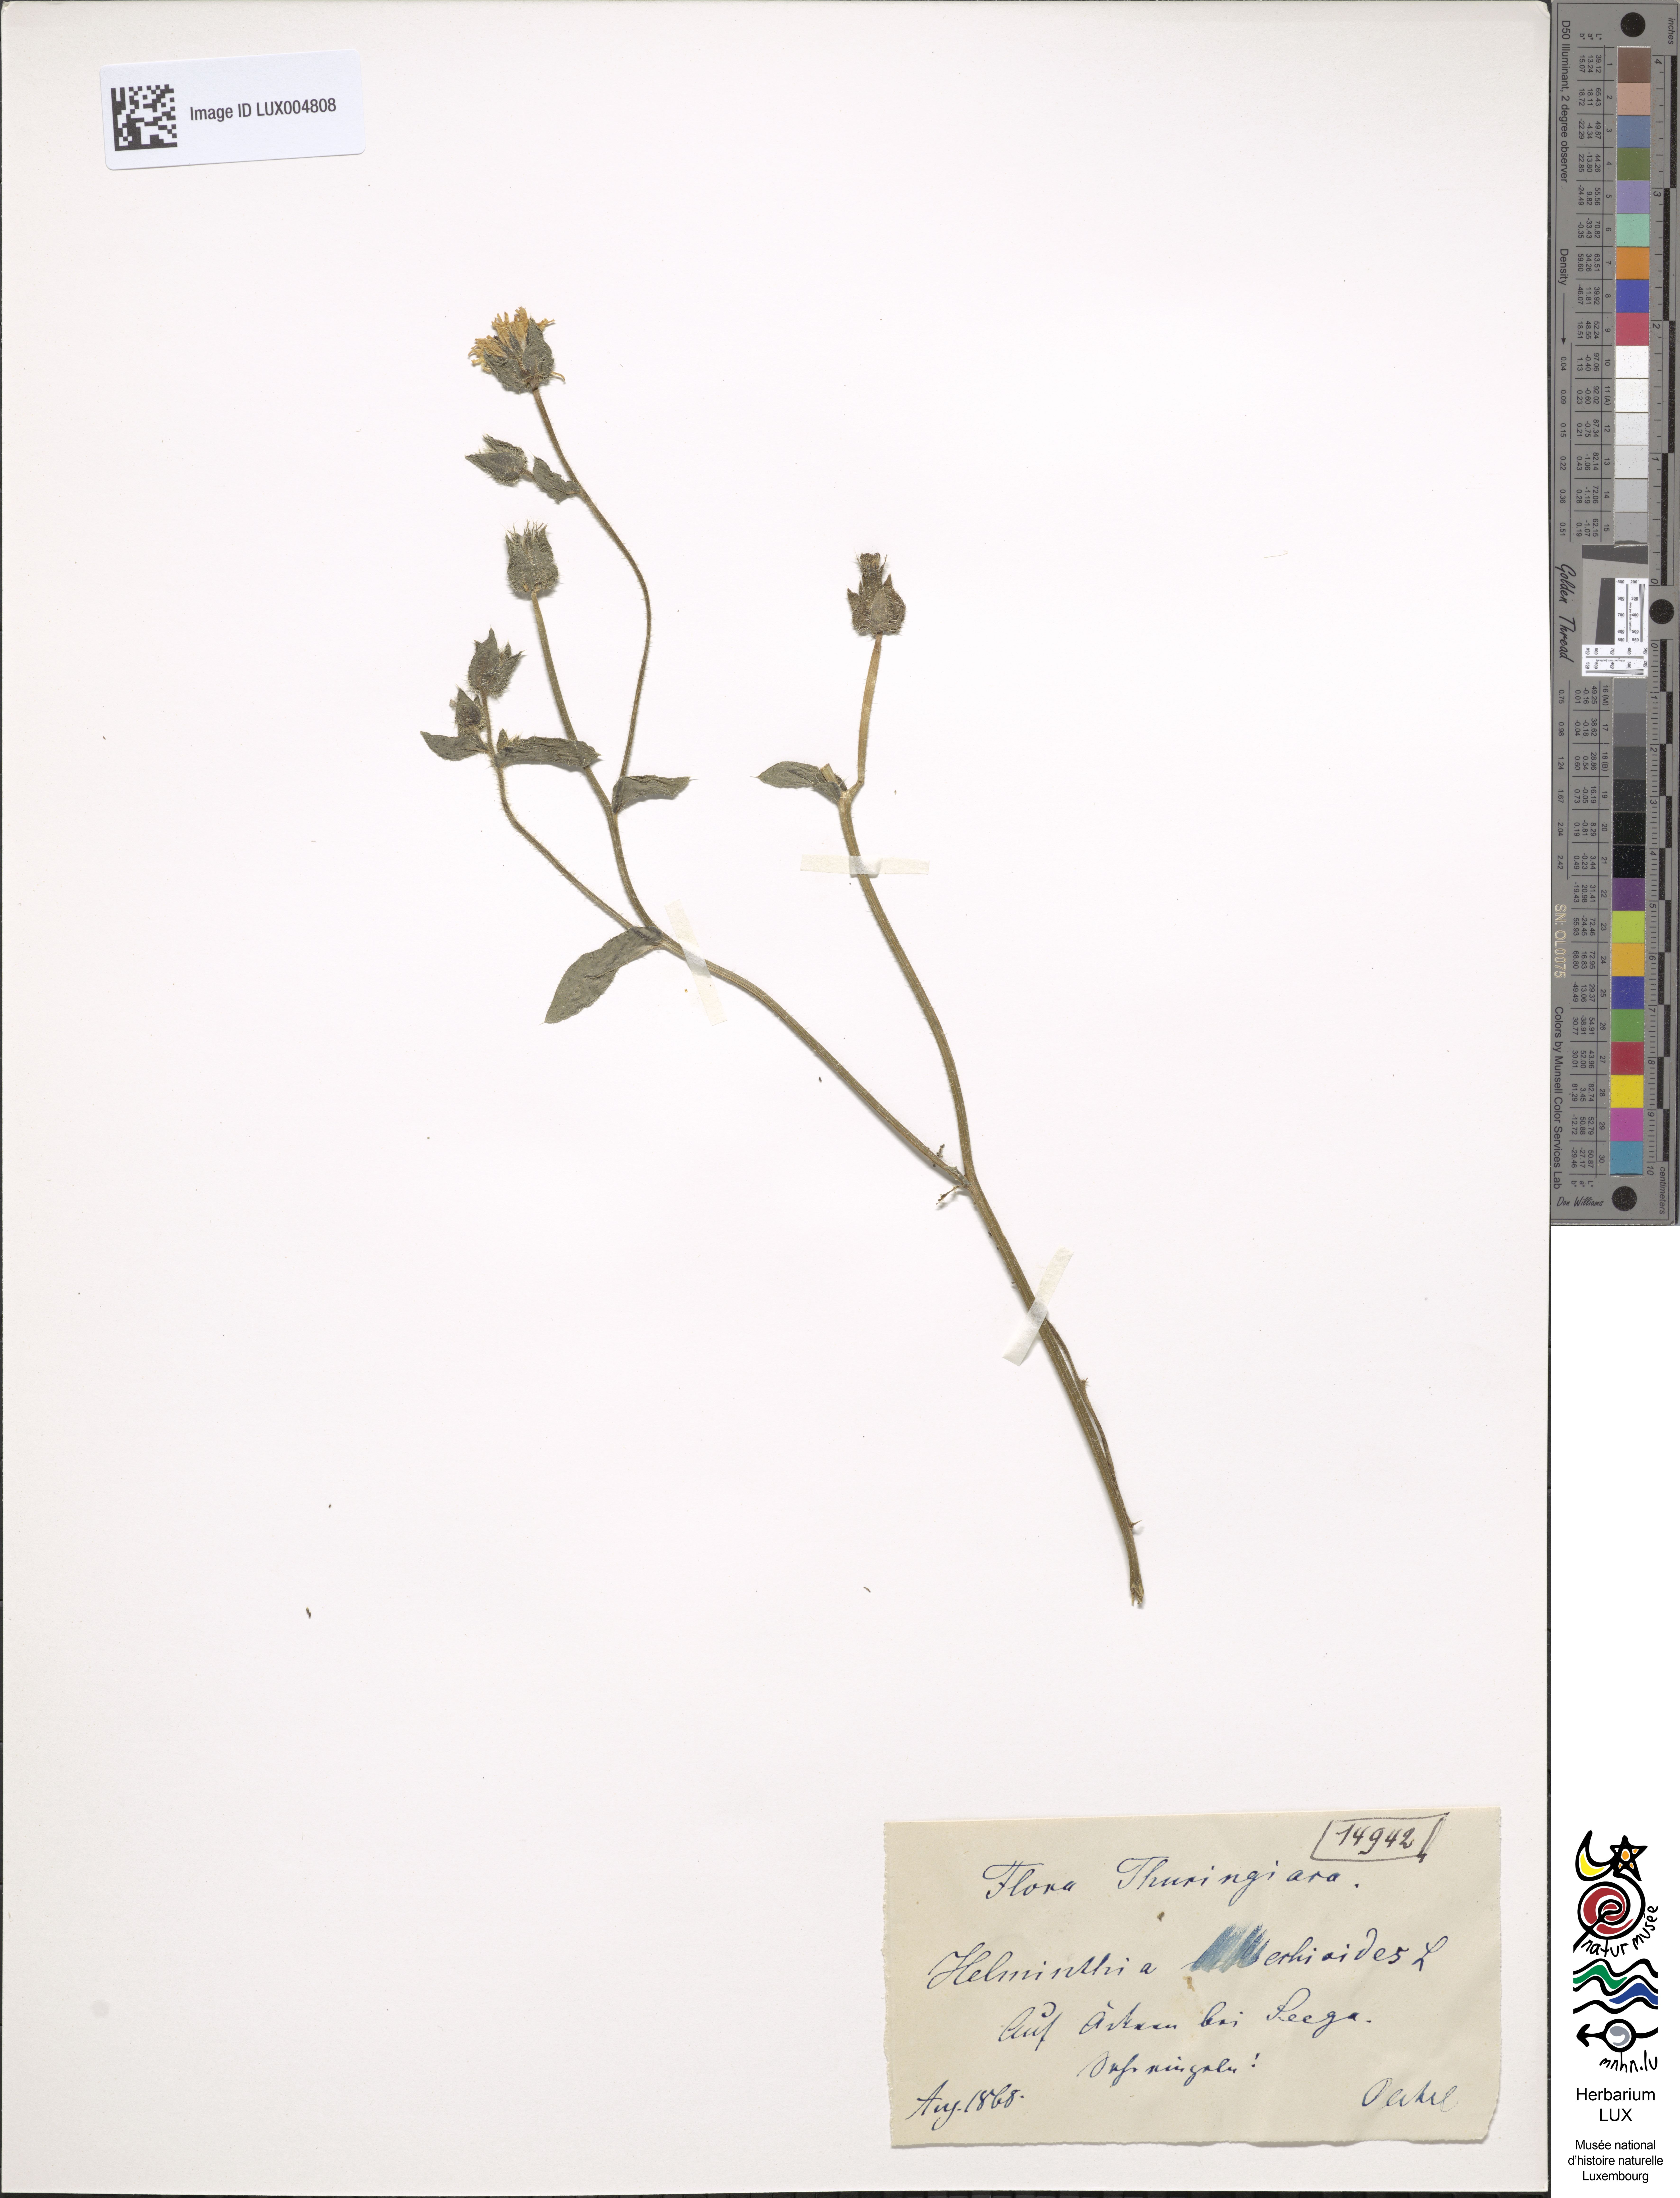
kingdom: Plantae
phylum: Tracheophyta
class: Magnoliopsida
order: Asterales
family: Asteraceae
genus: Helminthotheca
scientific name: Helminthotheca echioides
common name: Ox-tongue
